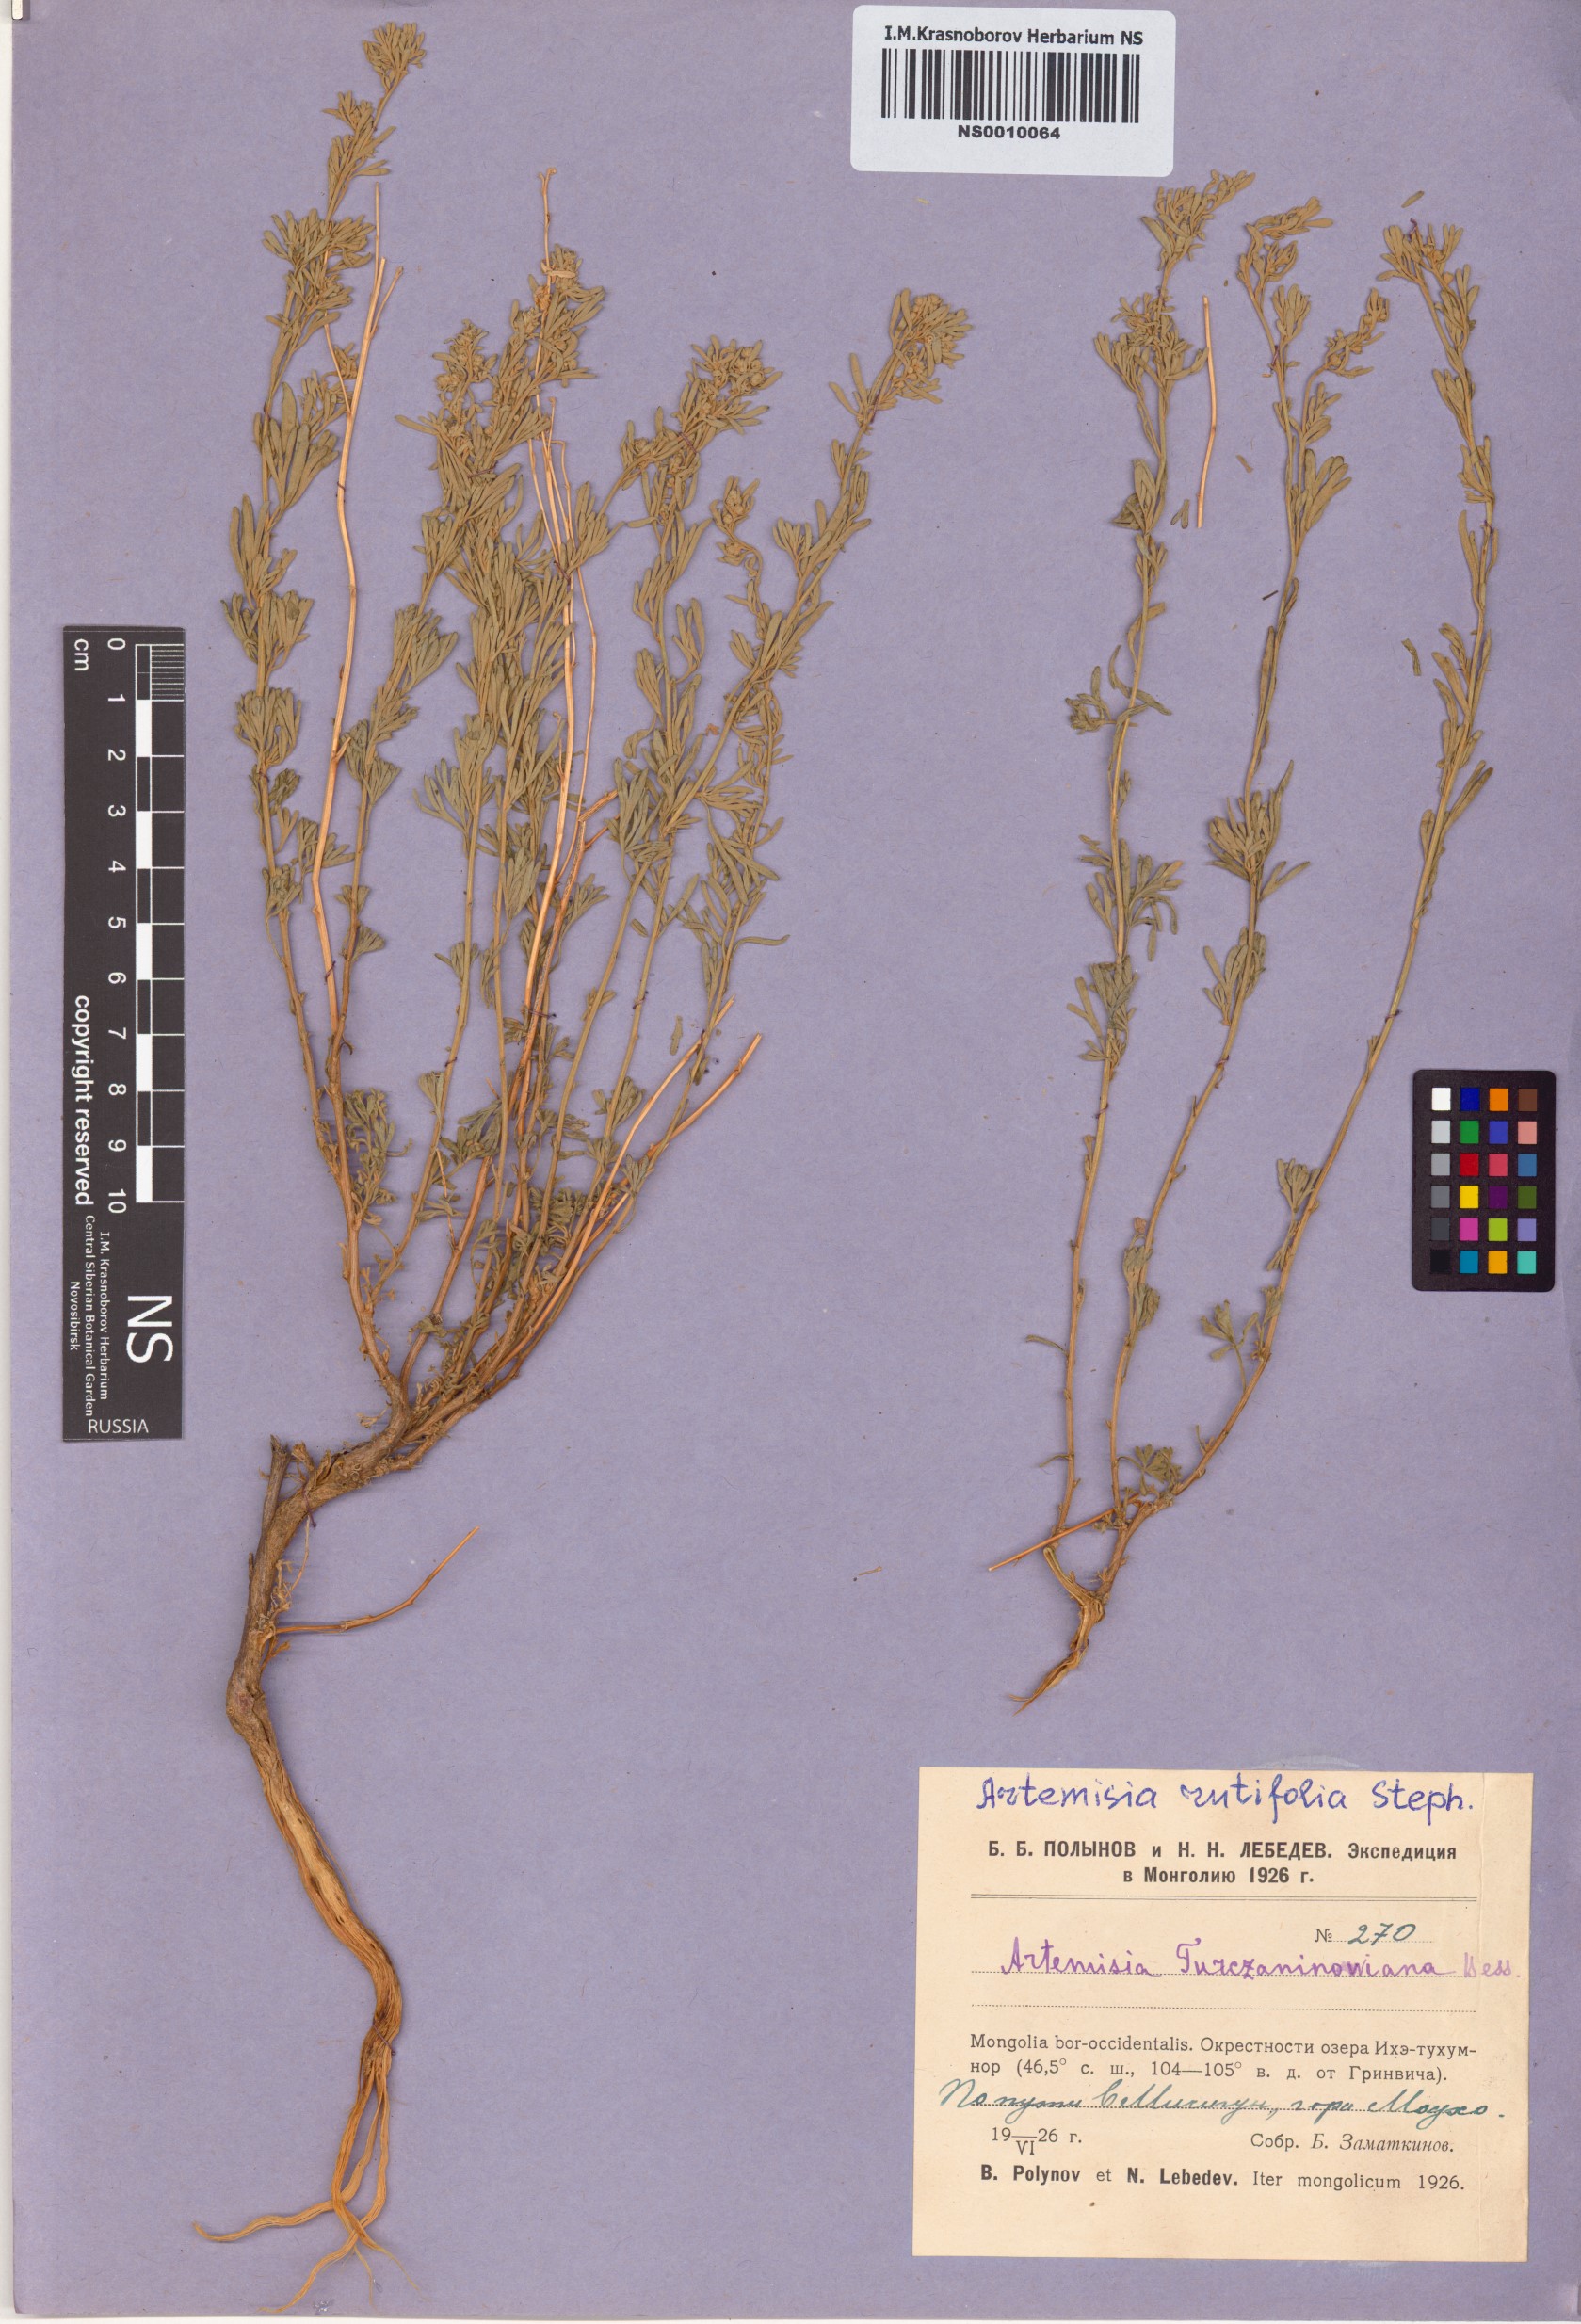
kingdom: Plantae
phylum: Tracheophyta
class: Magnoliopsida
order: Asterales
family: Asteraceae
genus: Artemisia
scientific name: Artemisia rutifolia
